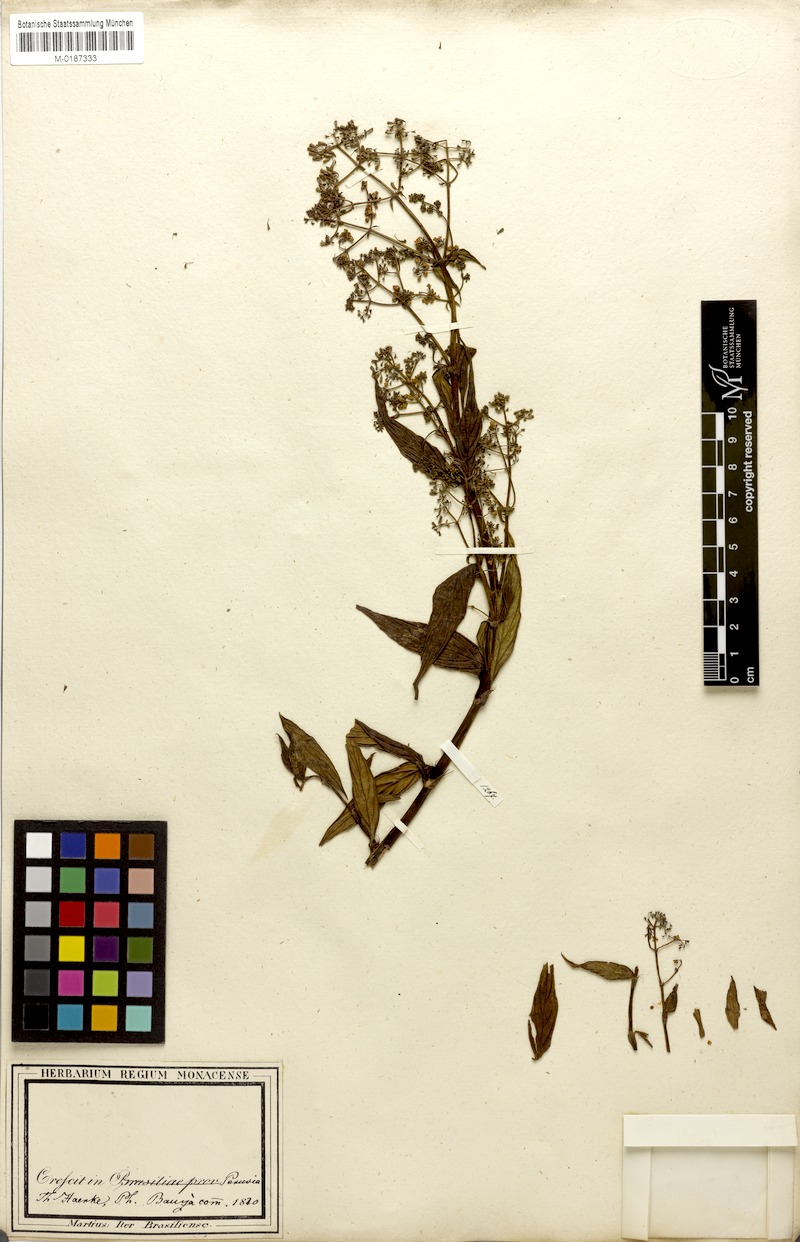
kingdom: Plantae
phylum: Tracheophyta
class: Magnoliopsida
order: Gentianales
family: Rubiaceae
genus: Emmeorhiza
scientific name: Emmeorhiza umbellata
